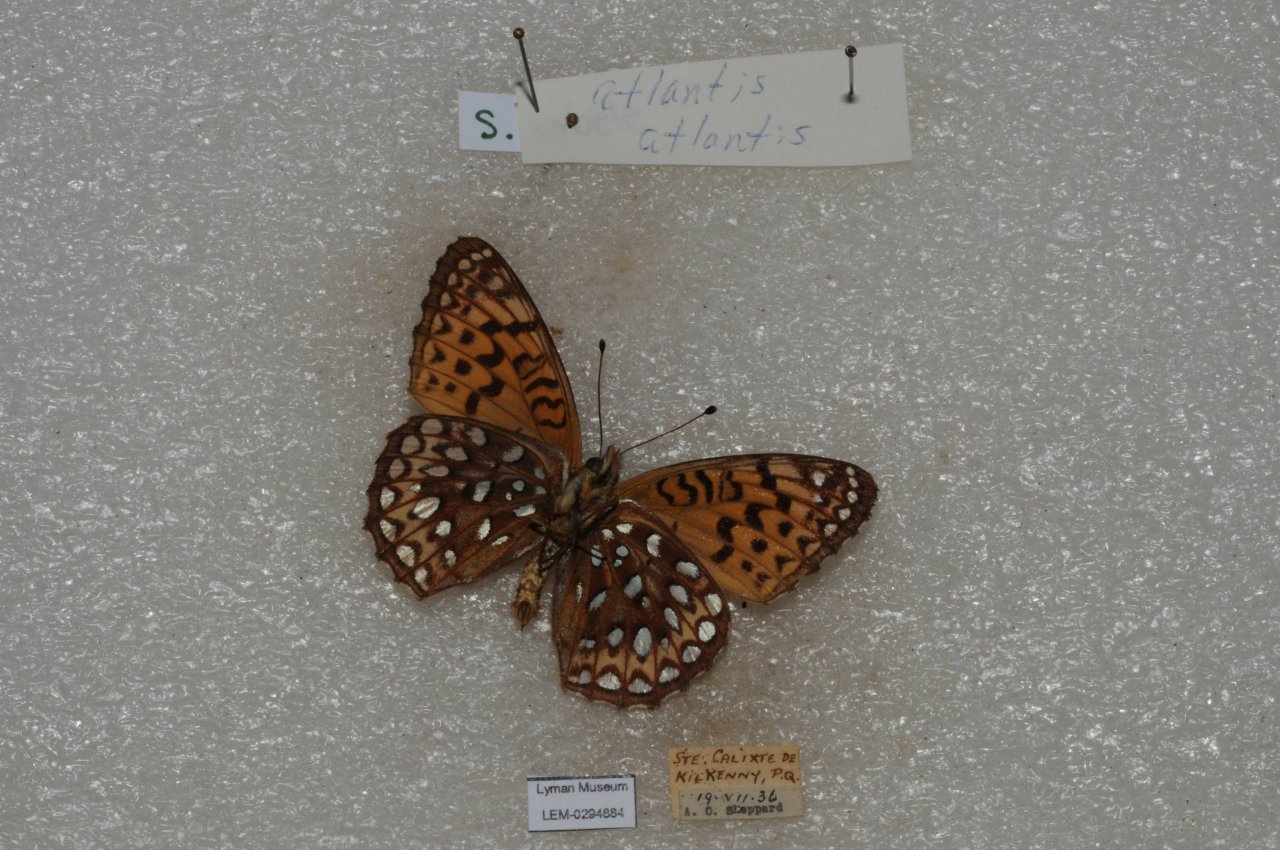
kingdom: Animalia
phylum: Arthropoda
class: Insecta
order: Lepidoptera
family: Nymphalidae
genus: Speyeria
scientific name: Speyeria atlantis
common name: Atlantis Fritillary
